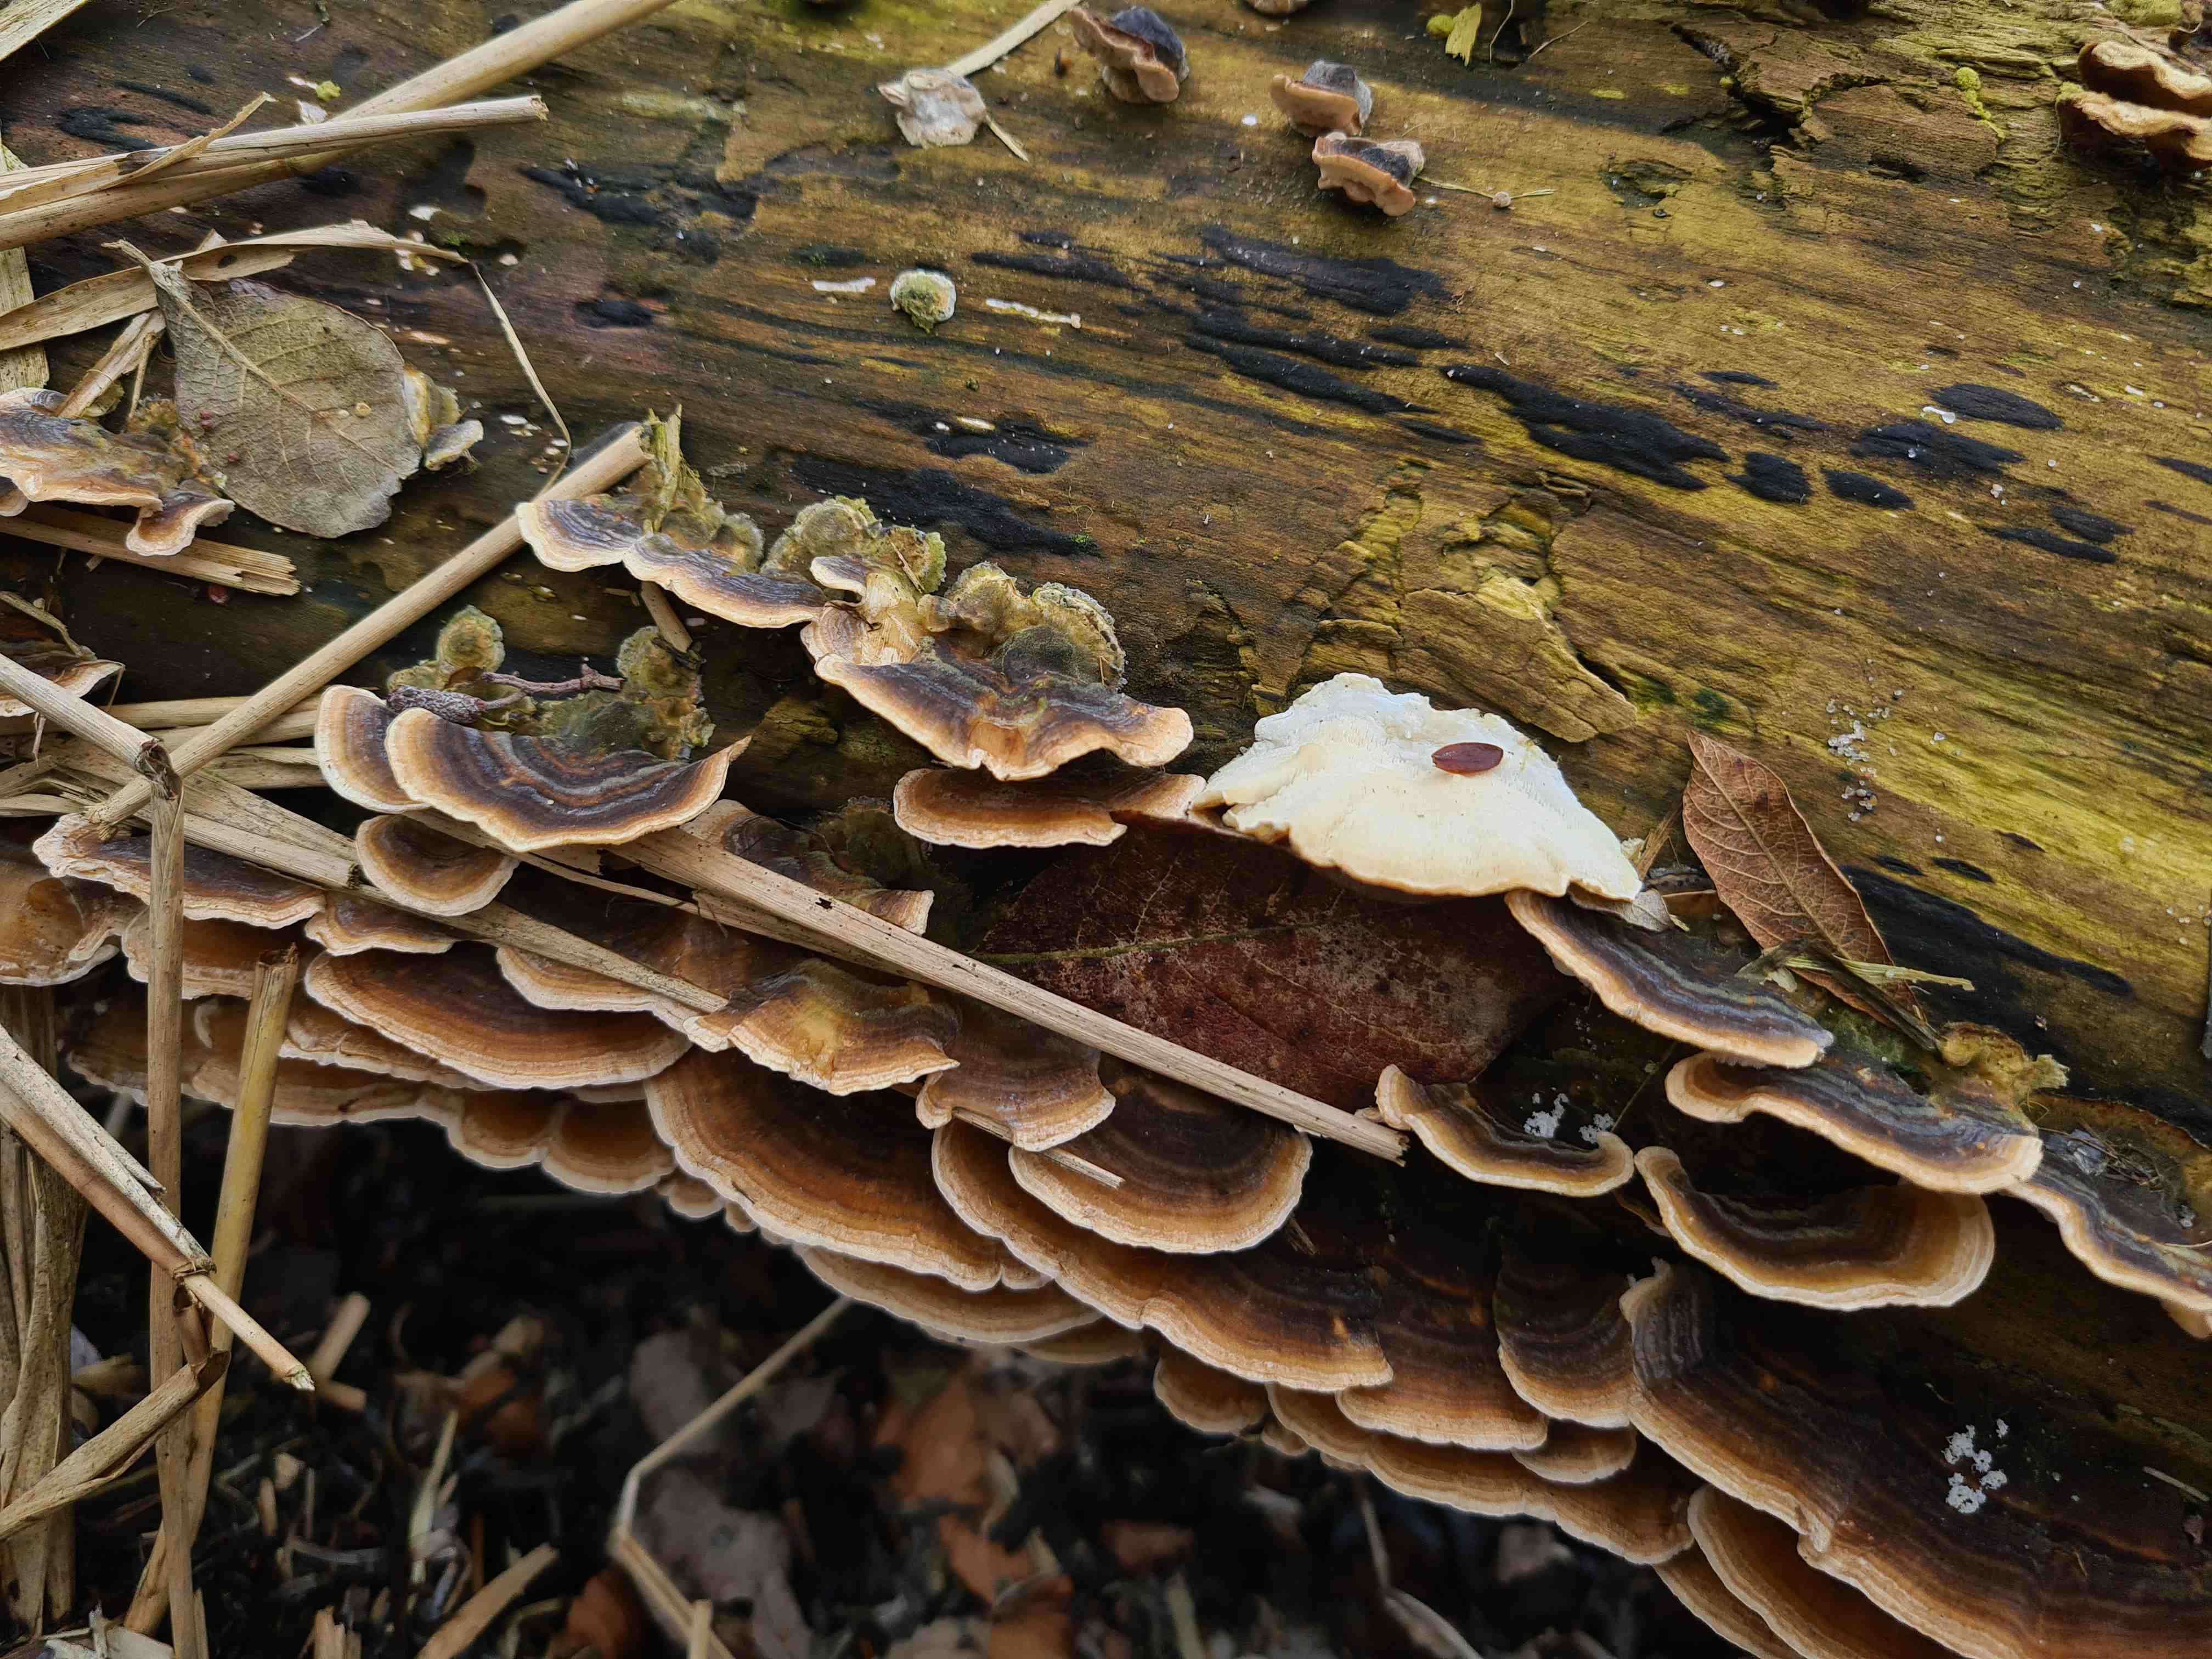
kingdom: Fungi
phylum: Basidiomycota
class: Agaricomycetes
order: Polyporales
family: Polyporaceae
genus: Trametes
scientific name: Trametes versicolor
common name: broget læderporesvamp
